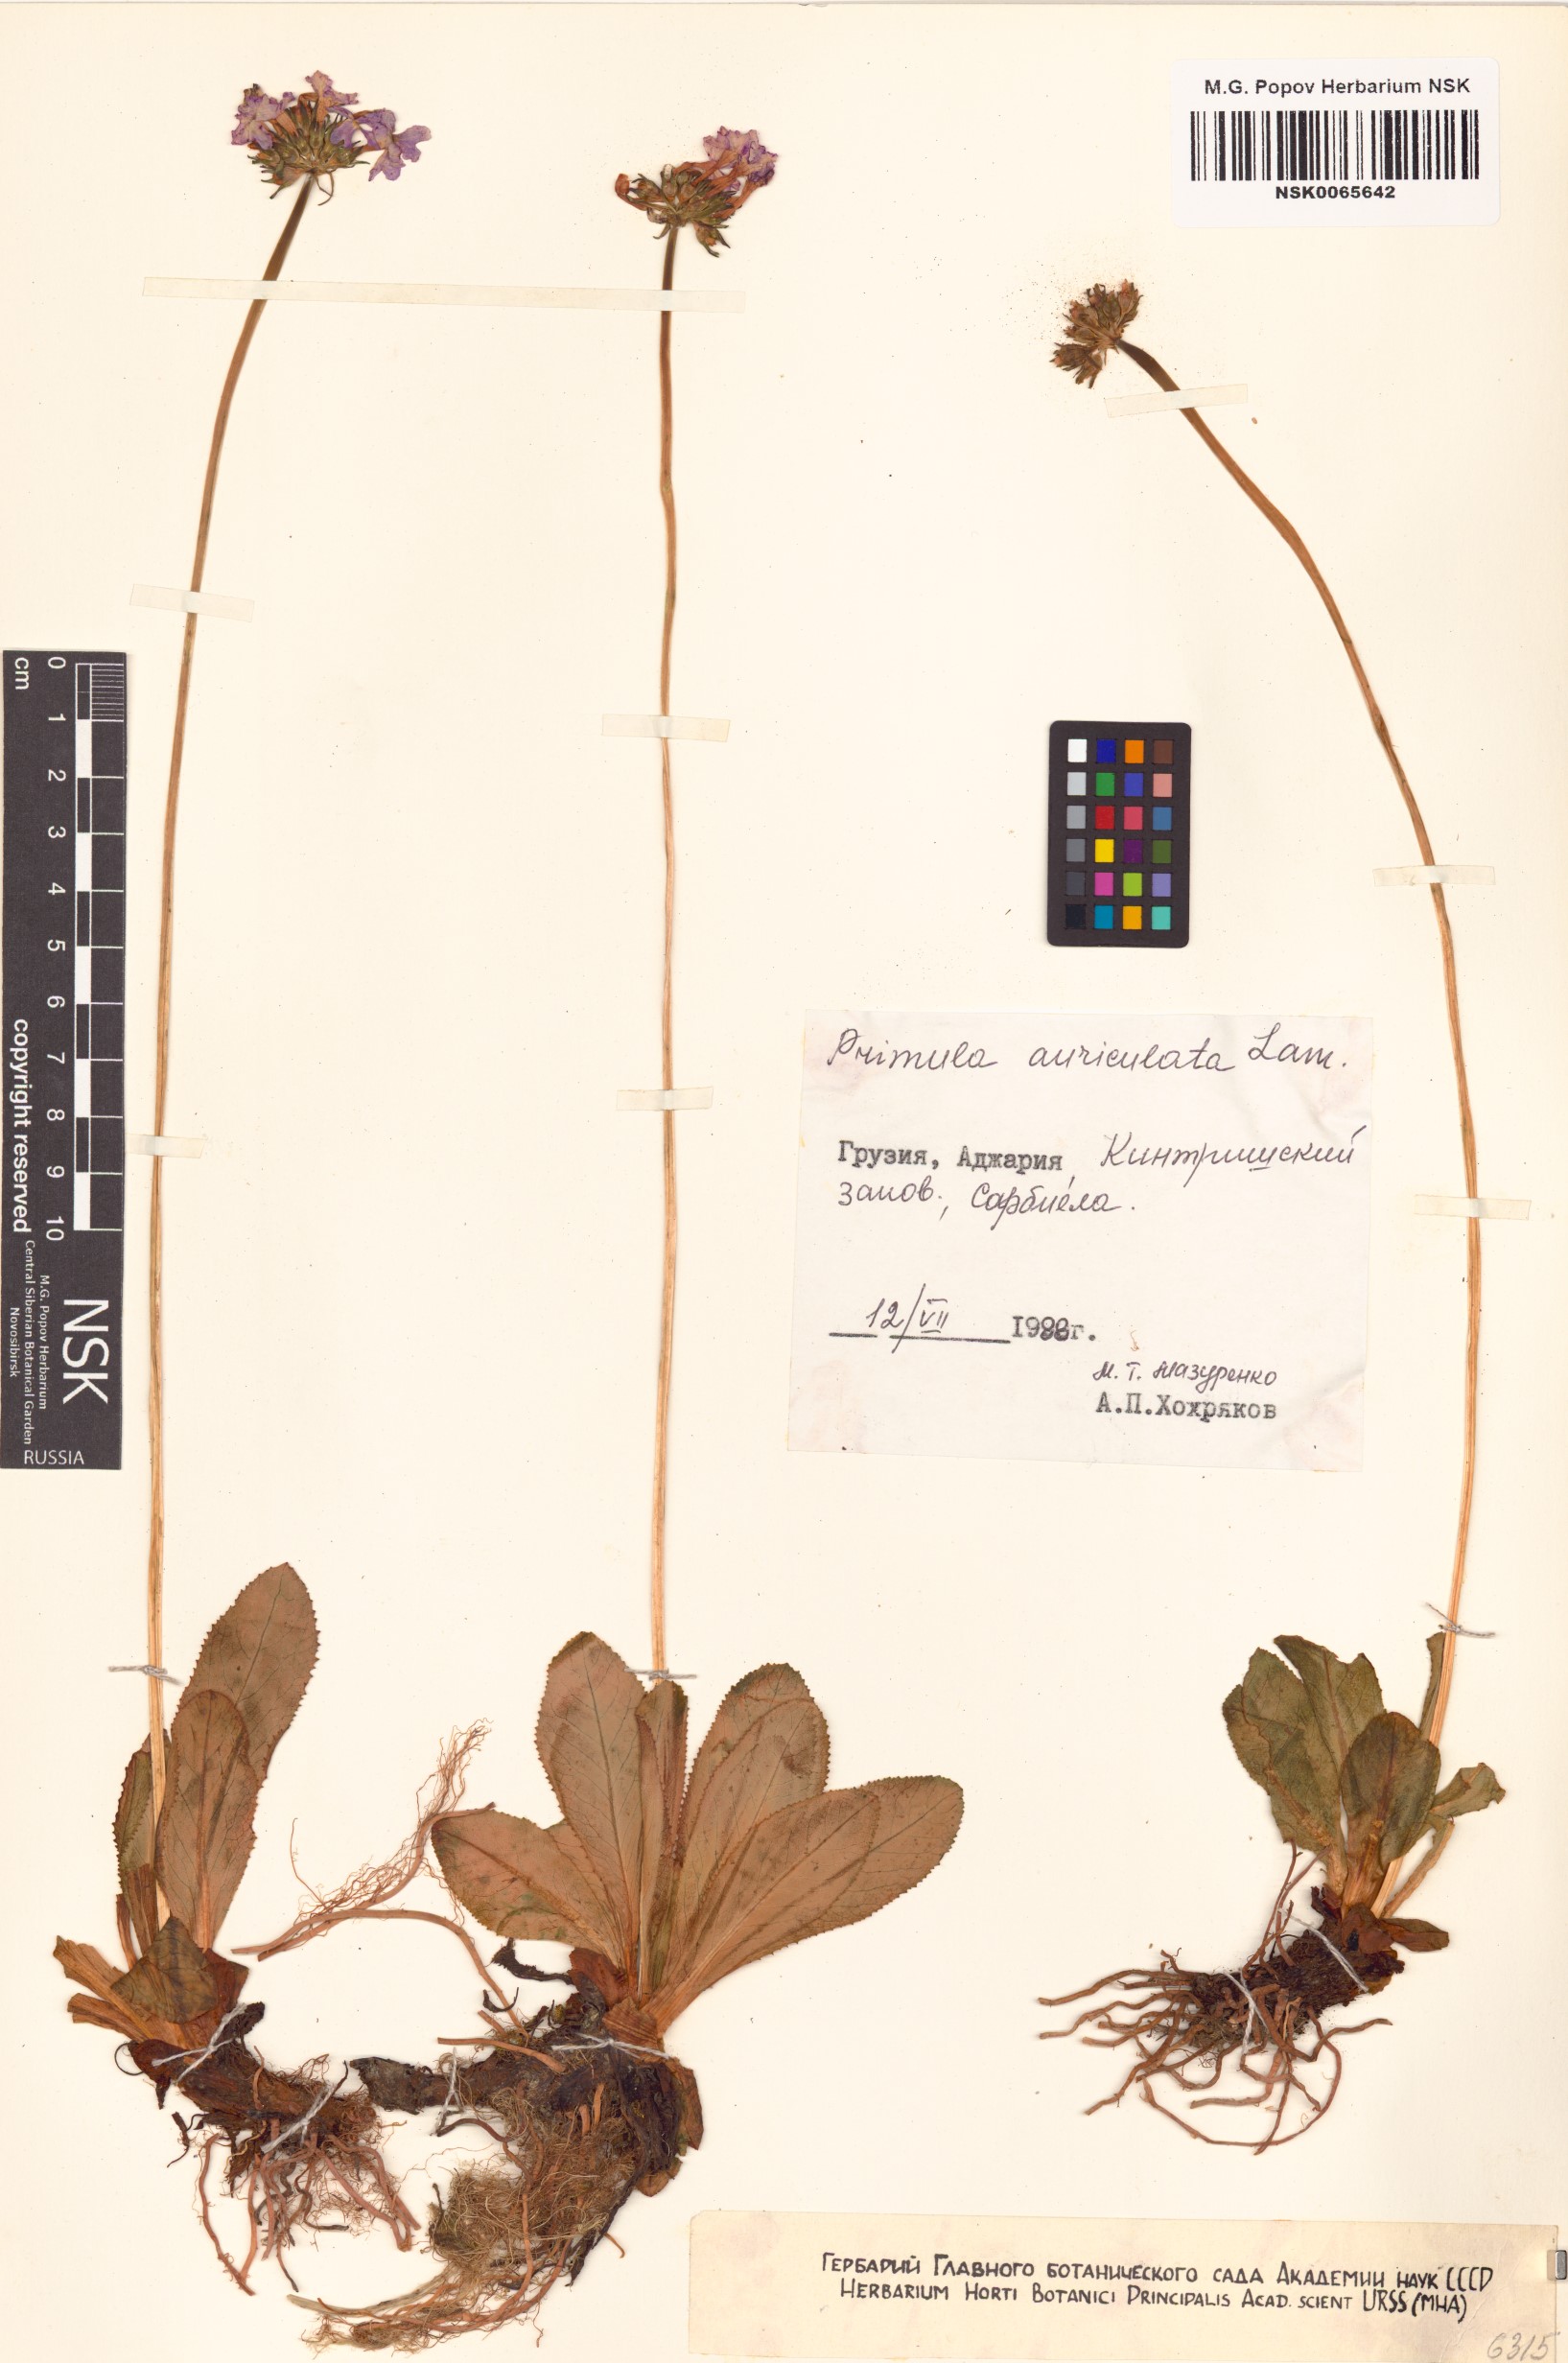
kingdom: Plantae
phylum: Tracheophyta
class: Magnoliopsida
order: Ericales
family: Primulaceae
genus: Primula
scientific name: Primula auriculata
